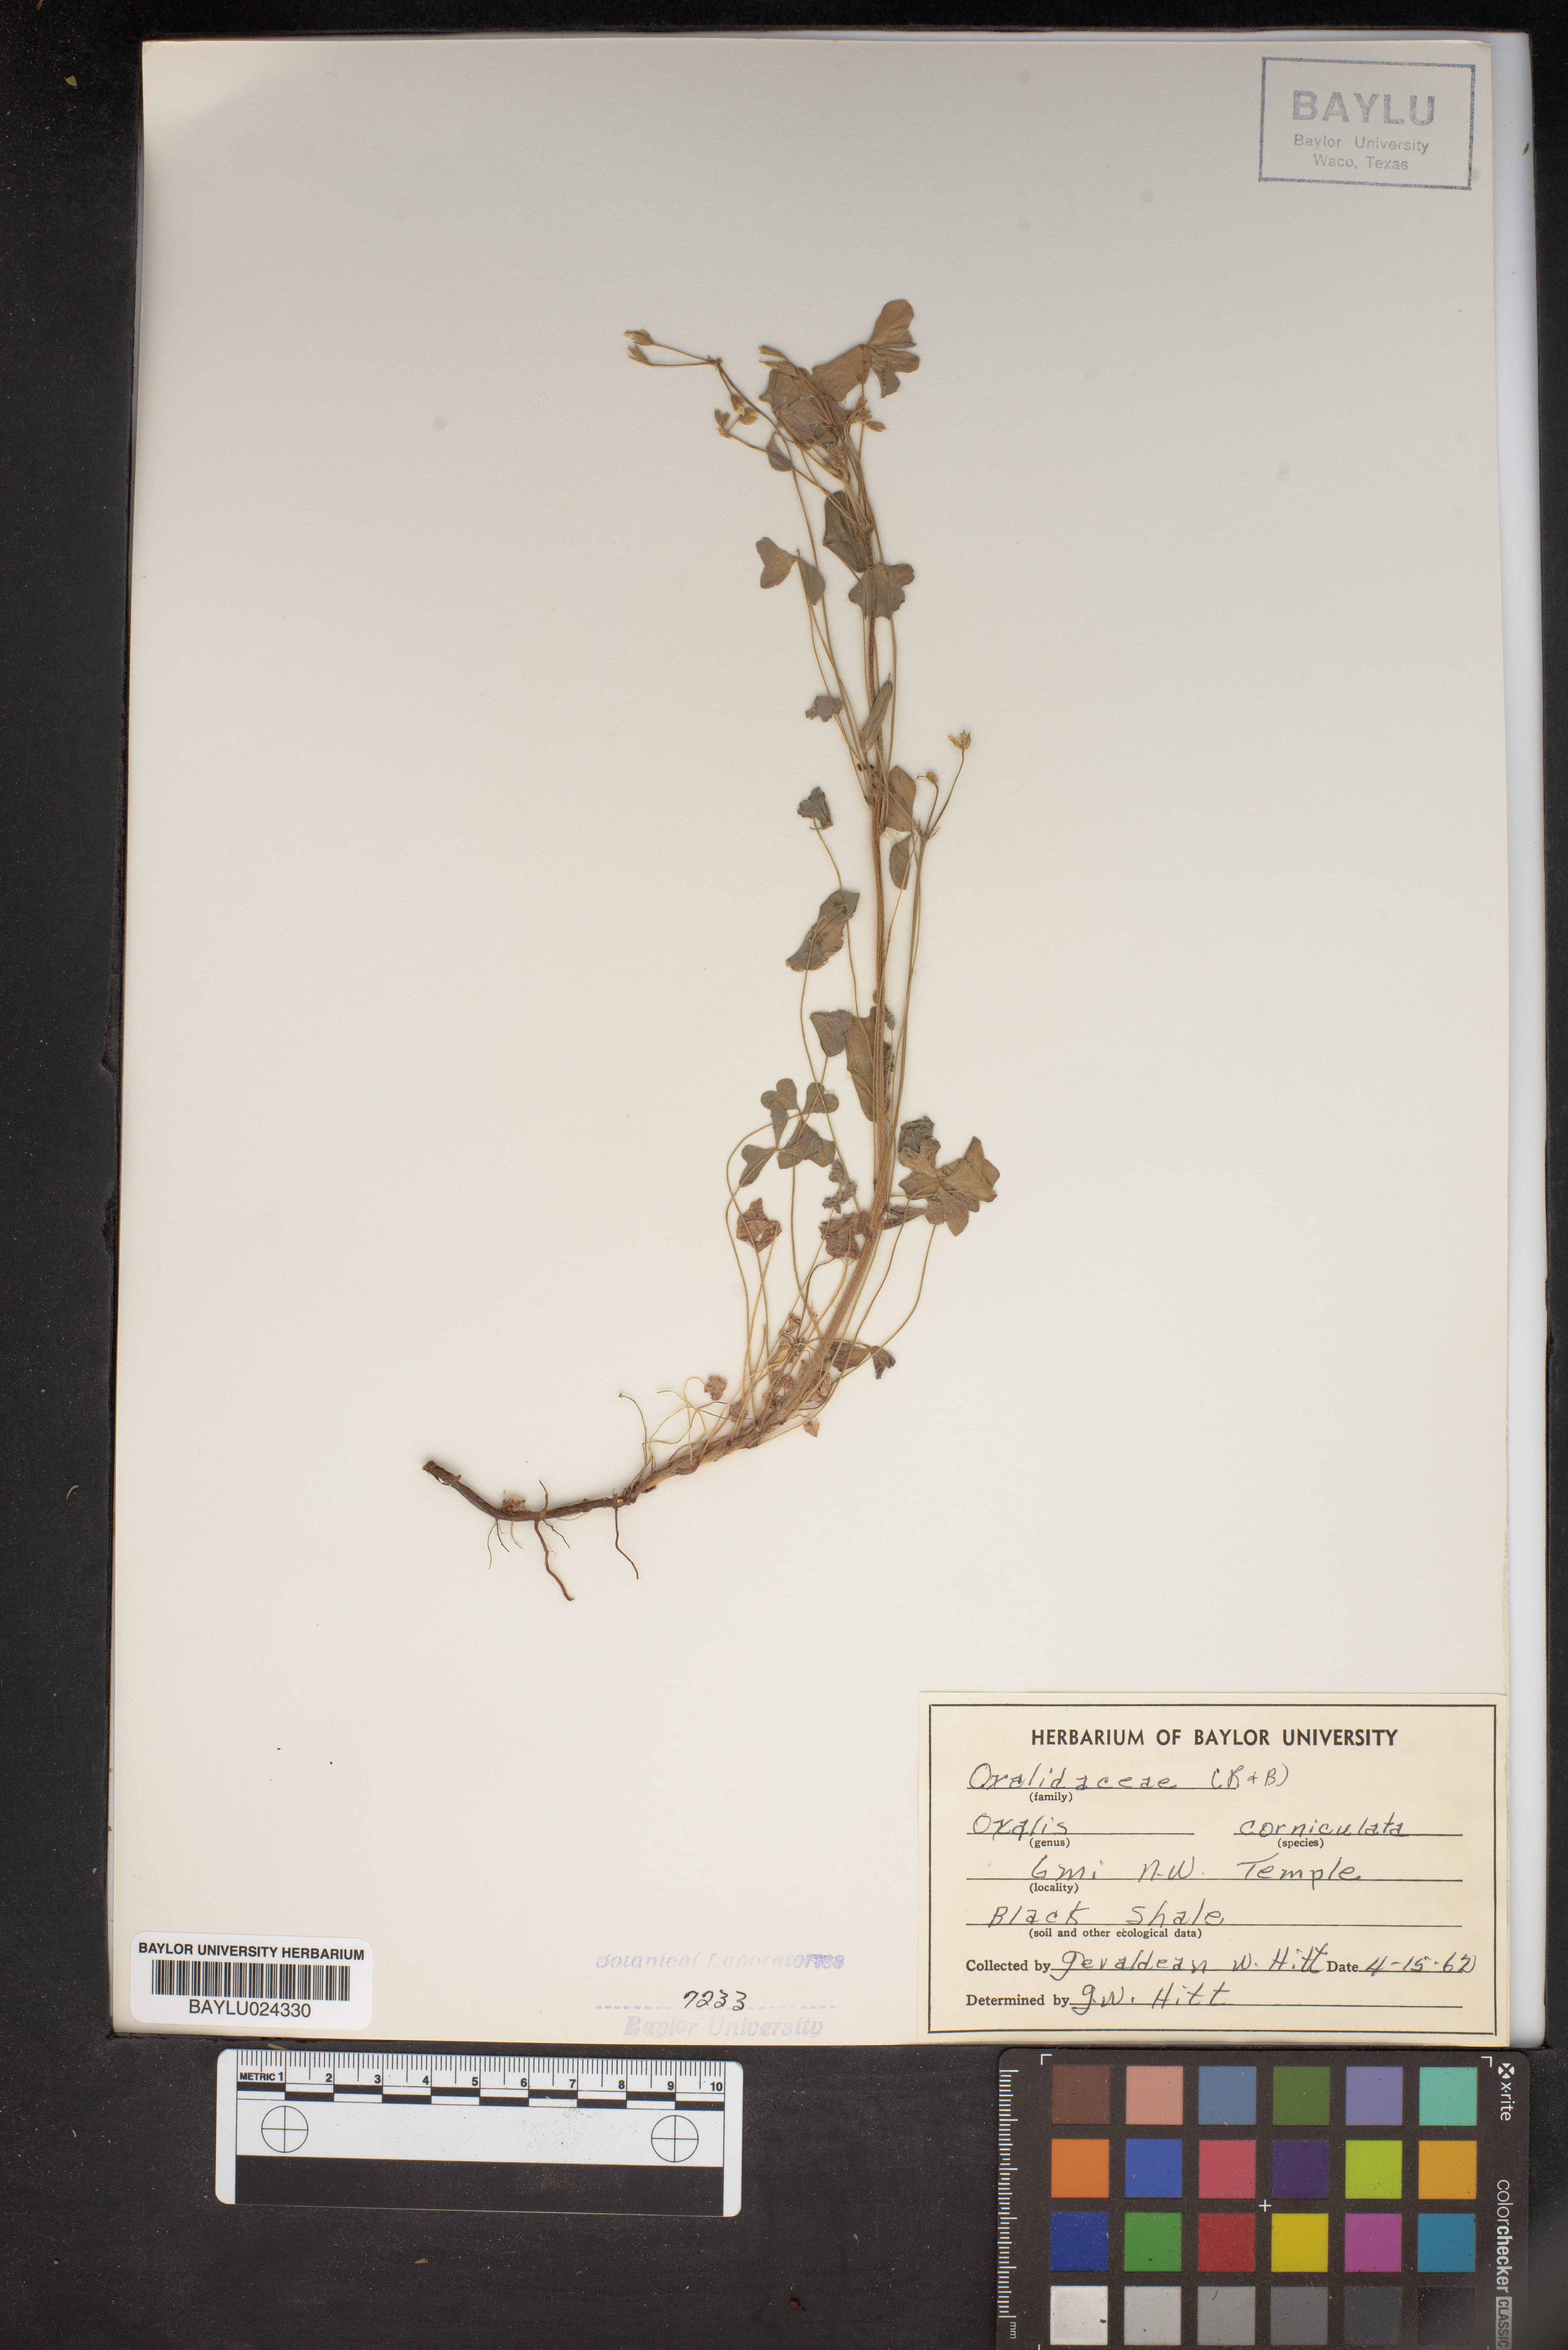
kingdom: Plantae
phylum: Tracheophyta
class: Magnoliopsida
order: Oxalidales
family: Oxalidaceae
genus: Oxalis
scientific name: Oxalis corniculata
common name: Procumbent yellow-sorrel
